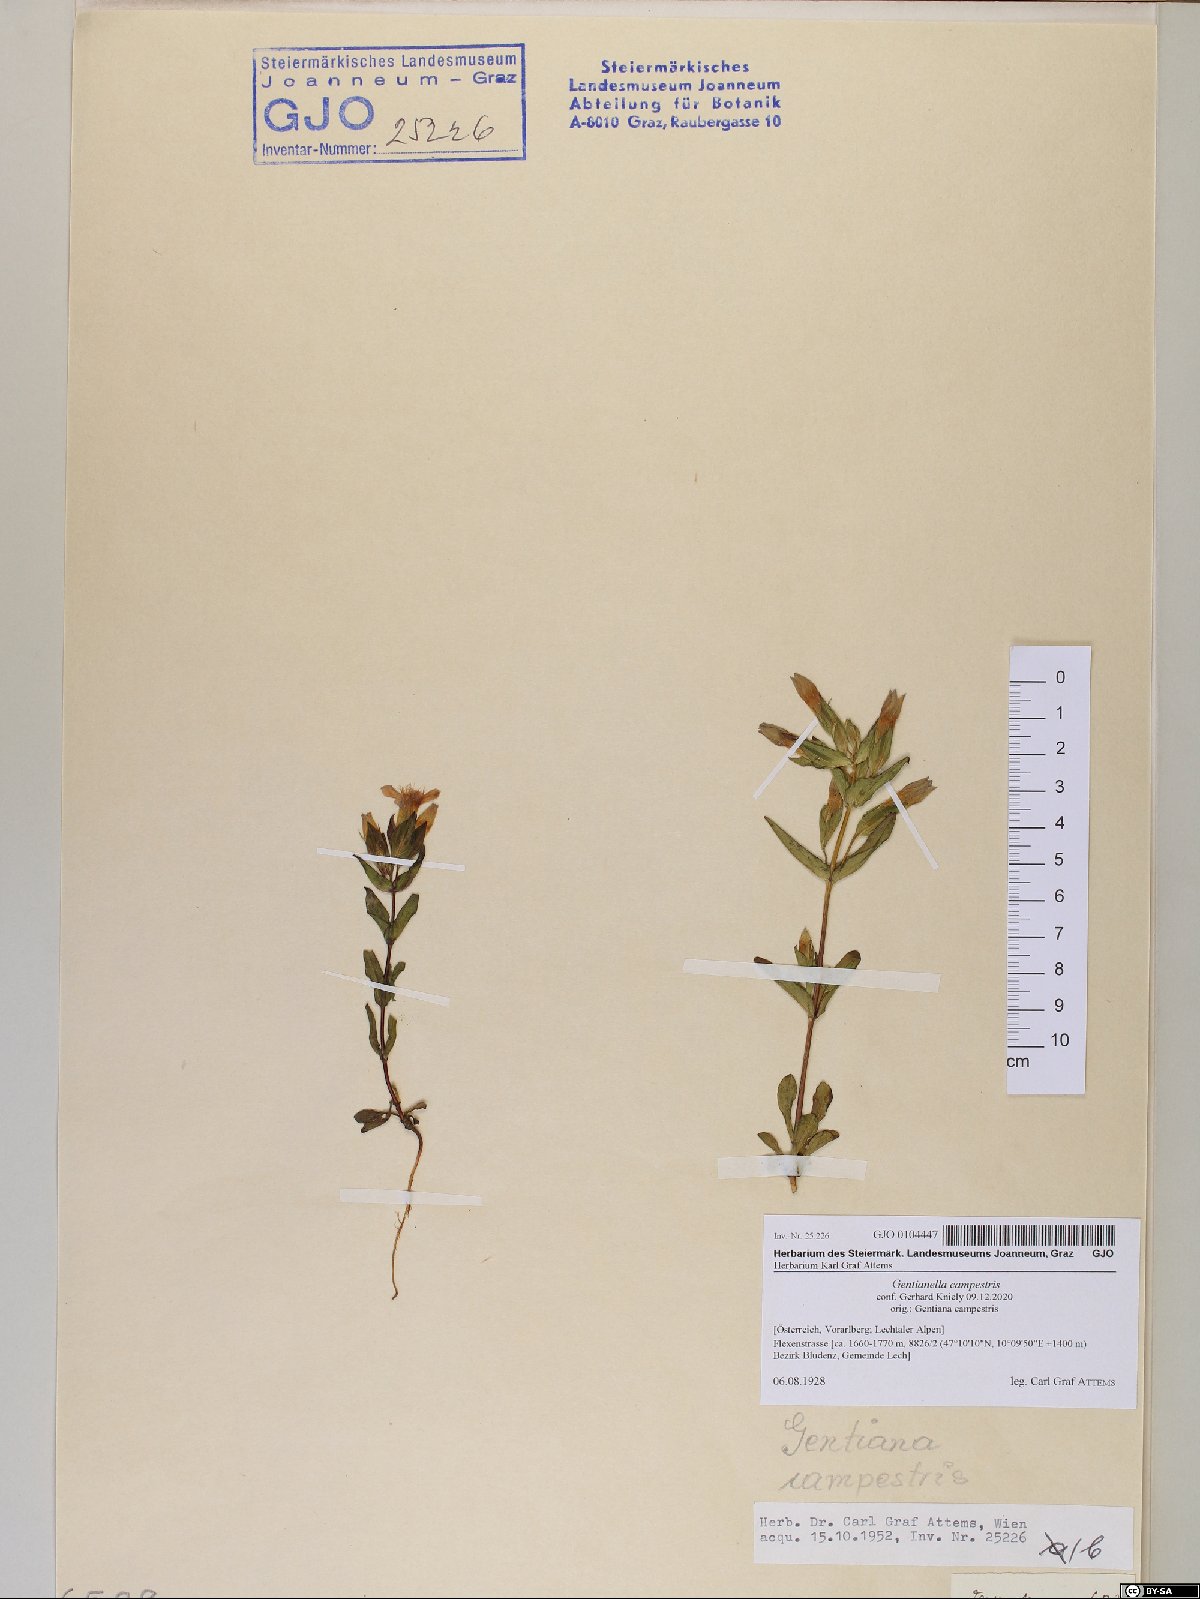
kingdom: Plantae
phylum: Tracheophyta
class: Magnoliopsida
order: Gentianales
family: Gentianaceae
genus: Gentianella
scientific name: Gentianella campestris
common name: Field gentian
